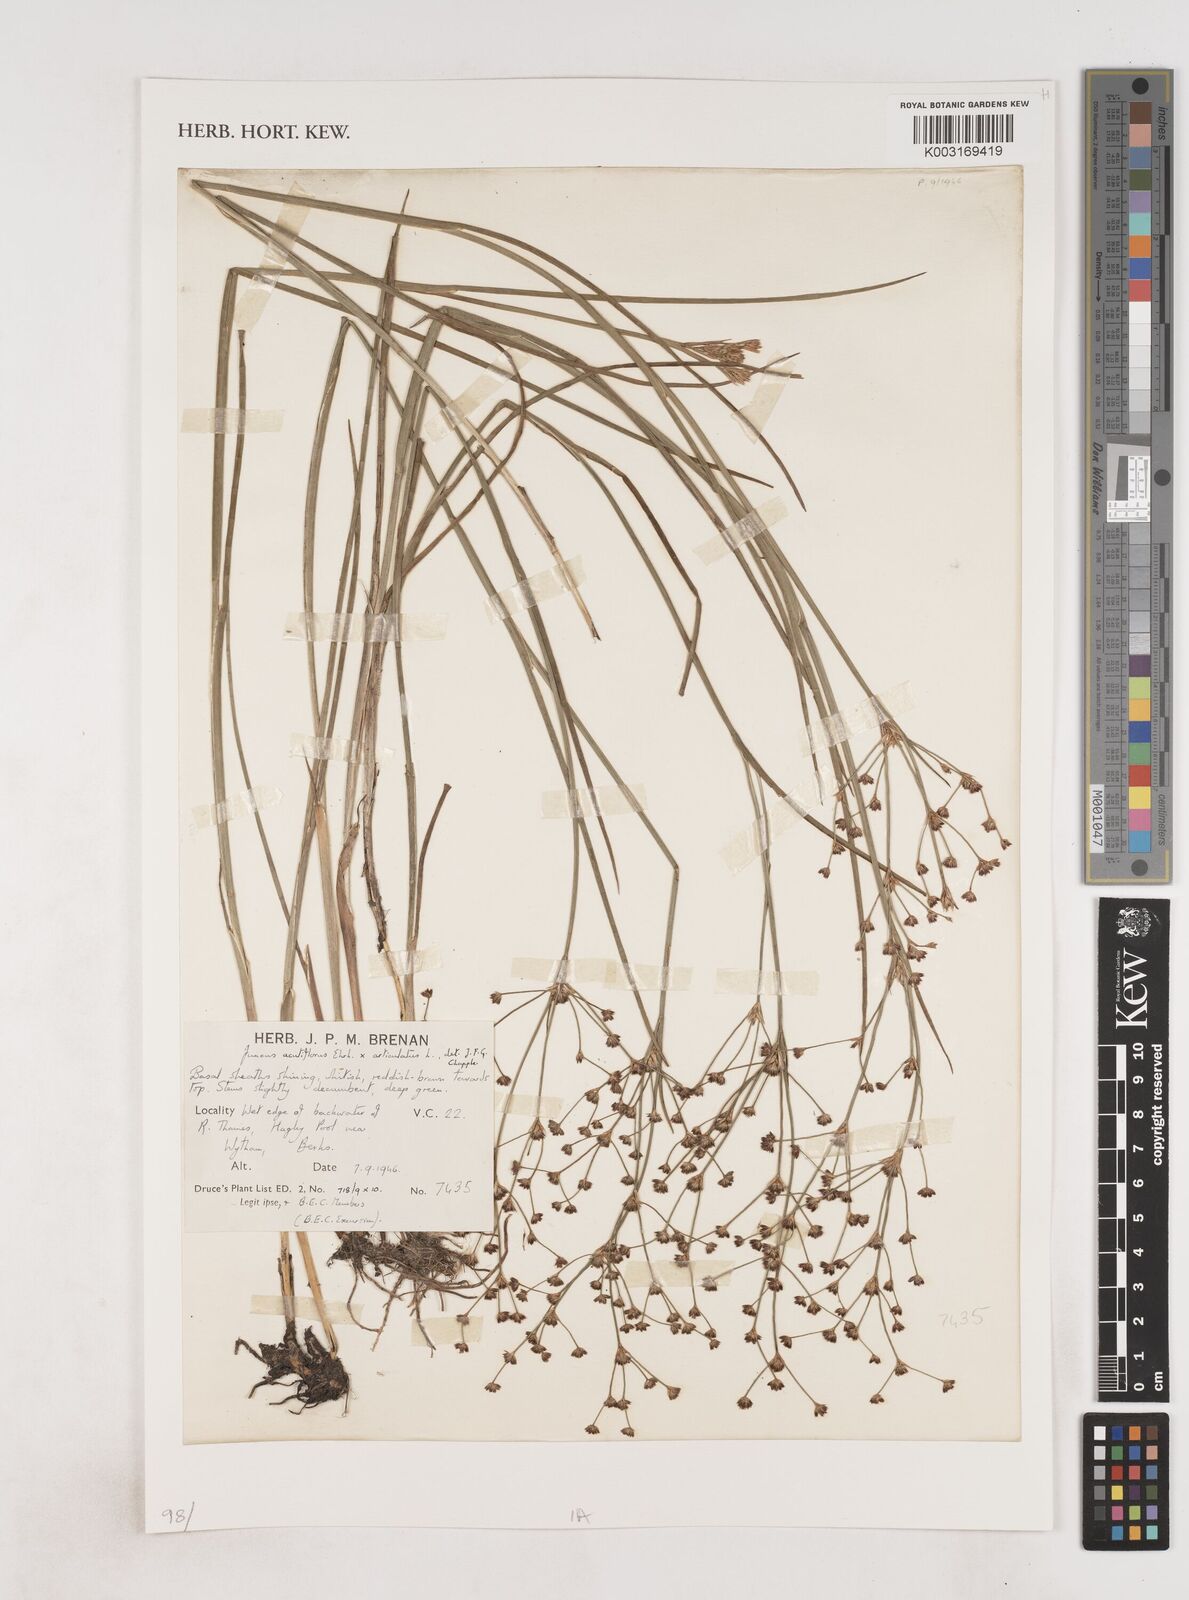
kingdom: Plantae
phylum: Tracheophyta
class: Liliopsida
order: Poales
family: Juncaceae
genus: Juncus
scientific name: Juncus acutiflorus
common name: Sharp-flowered rush
